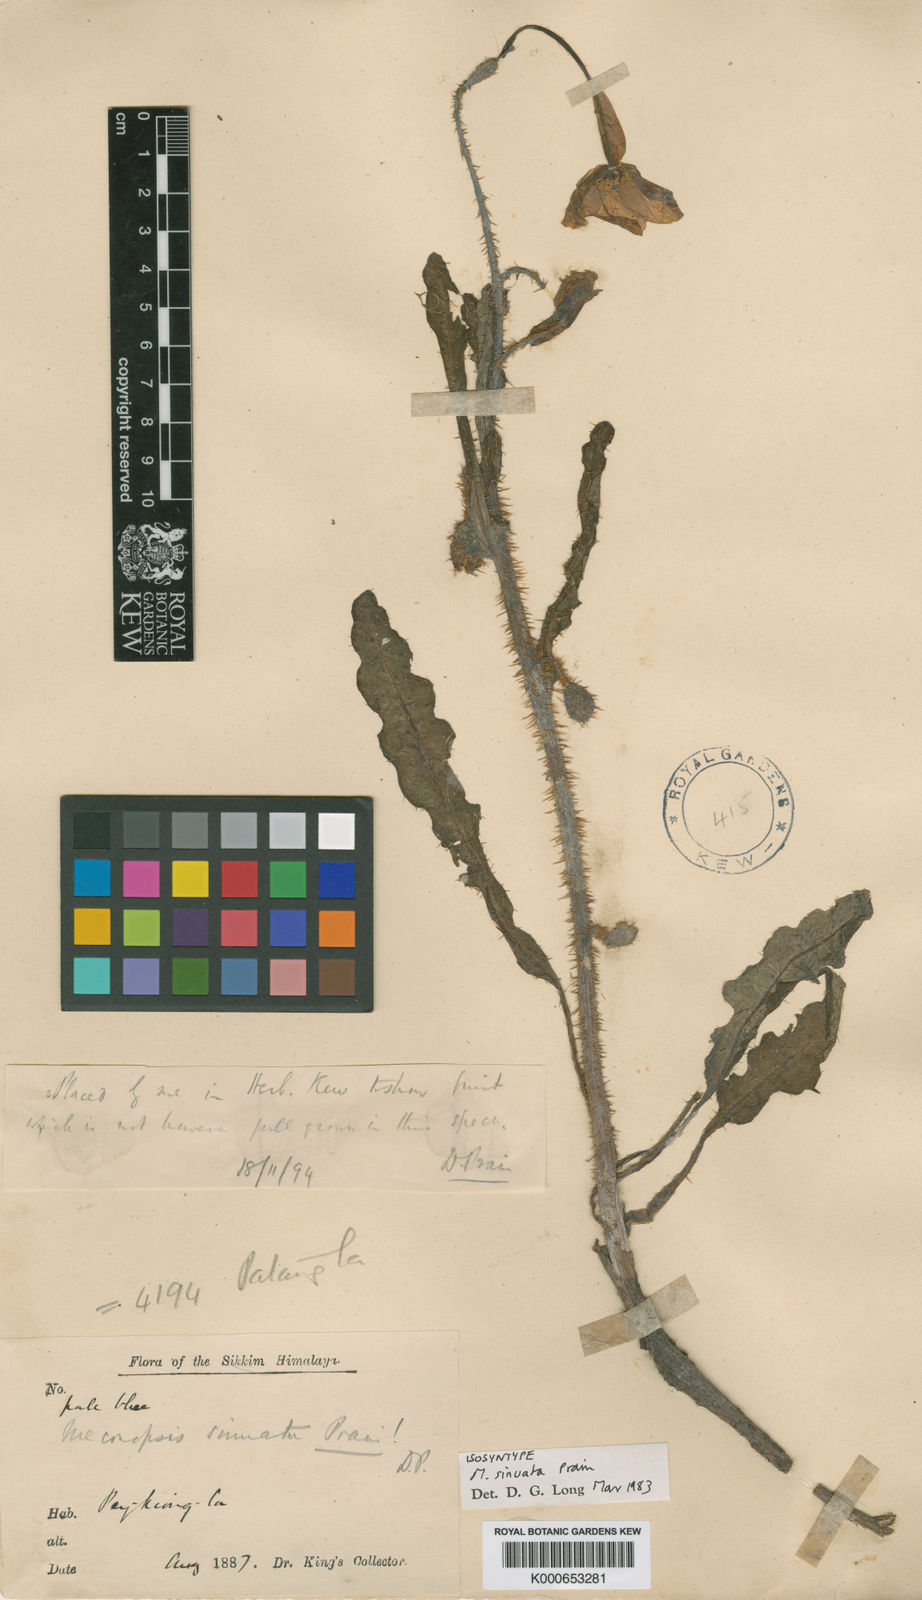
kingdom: Plantae
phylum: Tracheophyta
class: Magnoliopsida
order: Ranunculales
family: Papaveraceae
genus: Meconopsis
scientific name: Meconopsis sinuata
